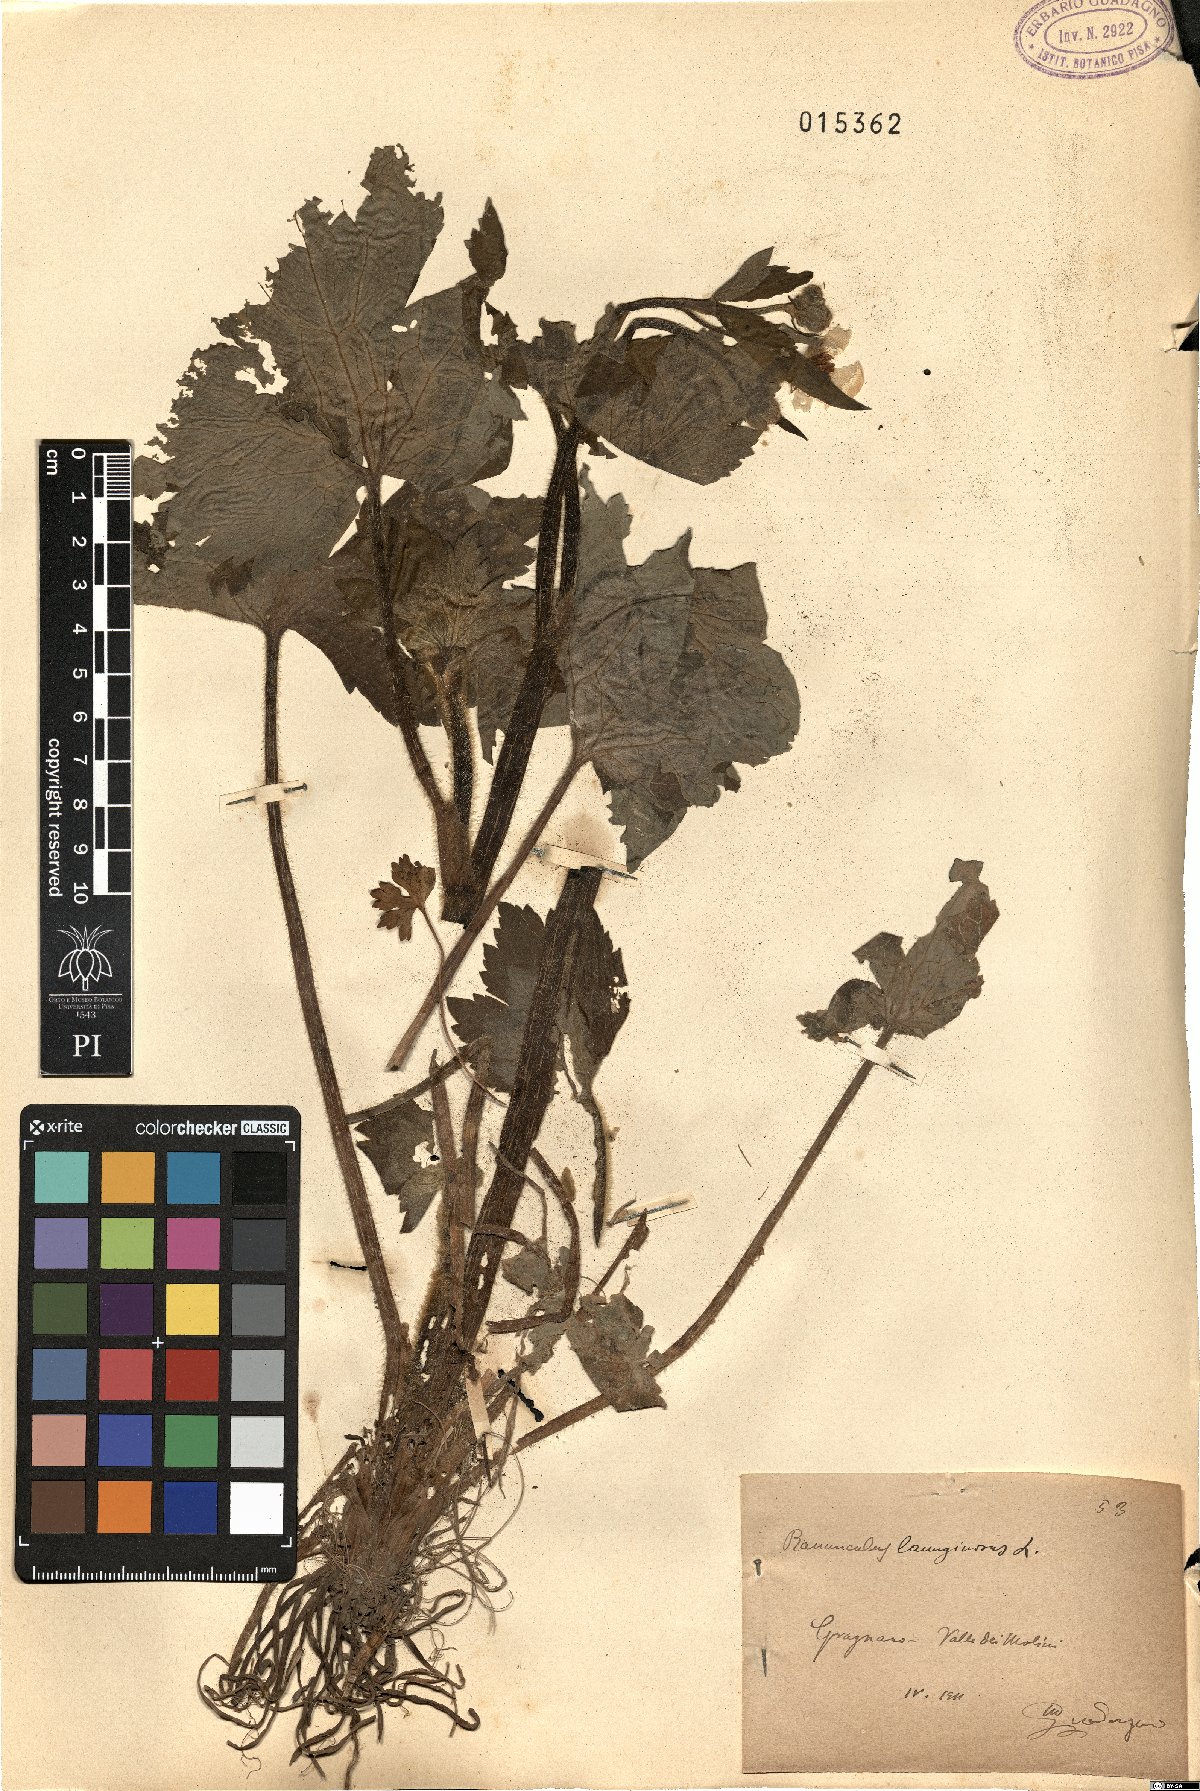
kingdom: Plantae
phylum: Tracheophyta
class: Magnoliopsida
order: Ranunculales
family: Ranunculaceae
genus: Ranunculus
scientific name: Ranunculus lanuginosus
